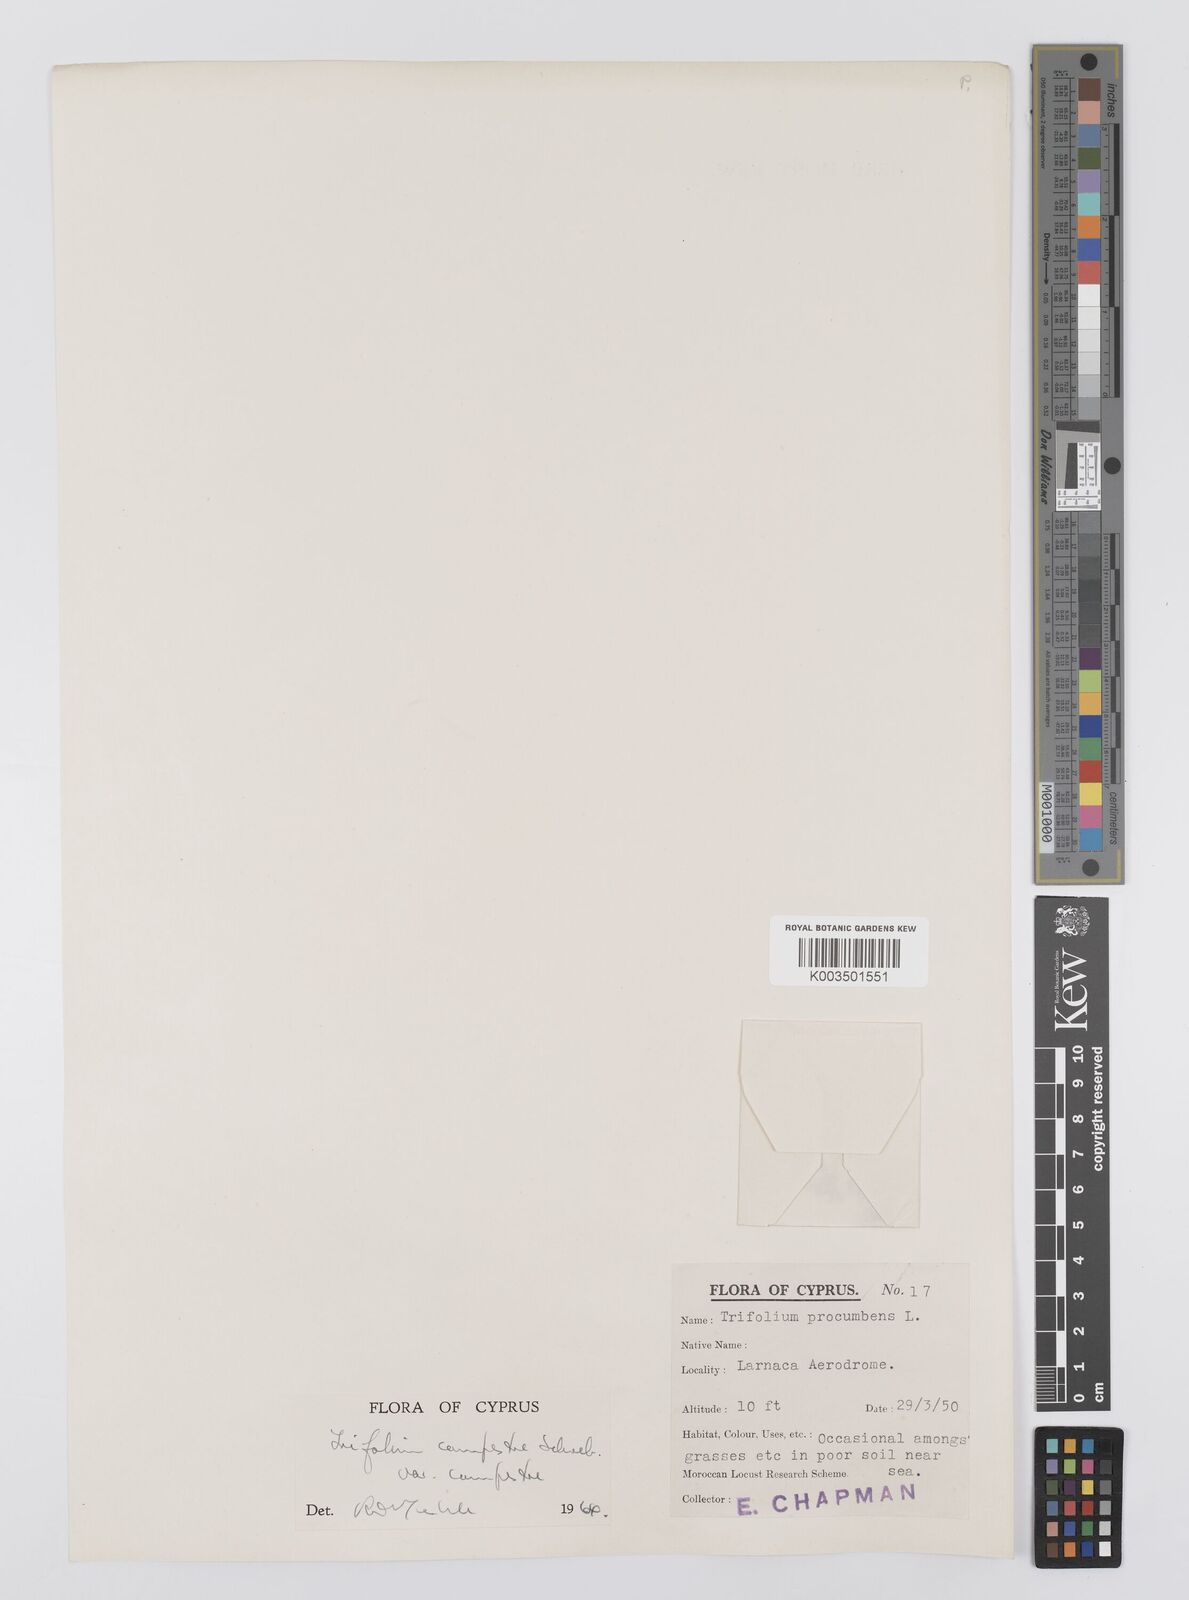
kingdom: Plantae
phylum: Tracheophyta
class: Magnoliopsida
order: Fabales
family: Fabaceae
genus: Trifolium
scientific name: Trifolium campestre
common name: Field clover
